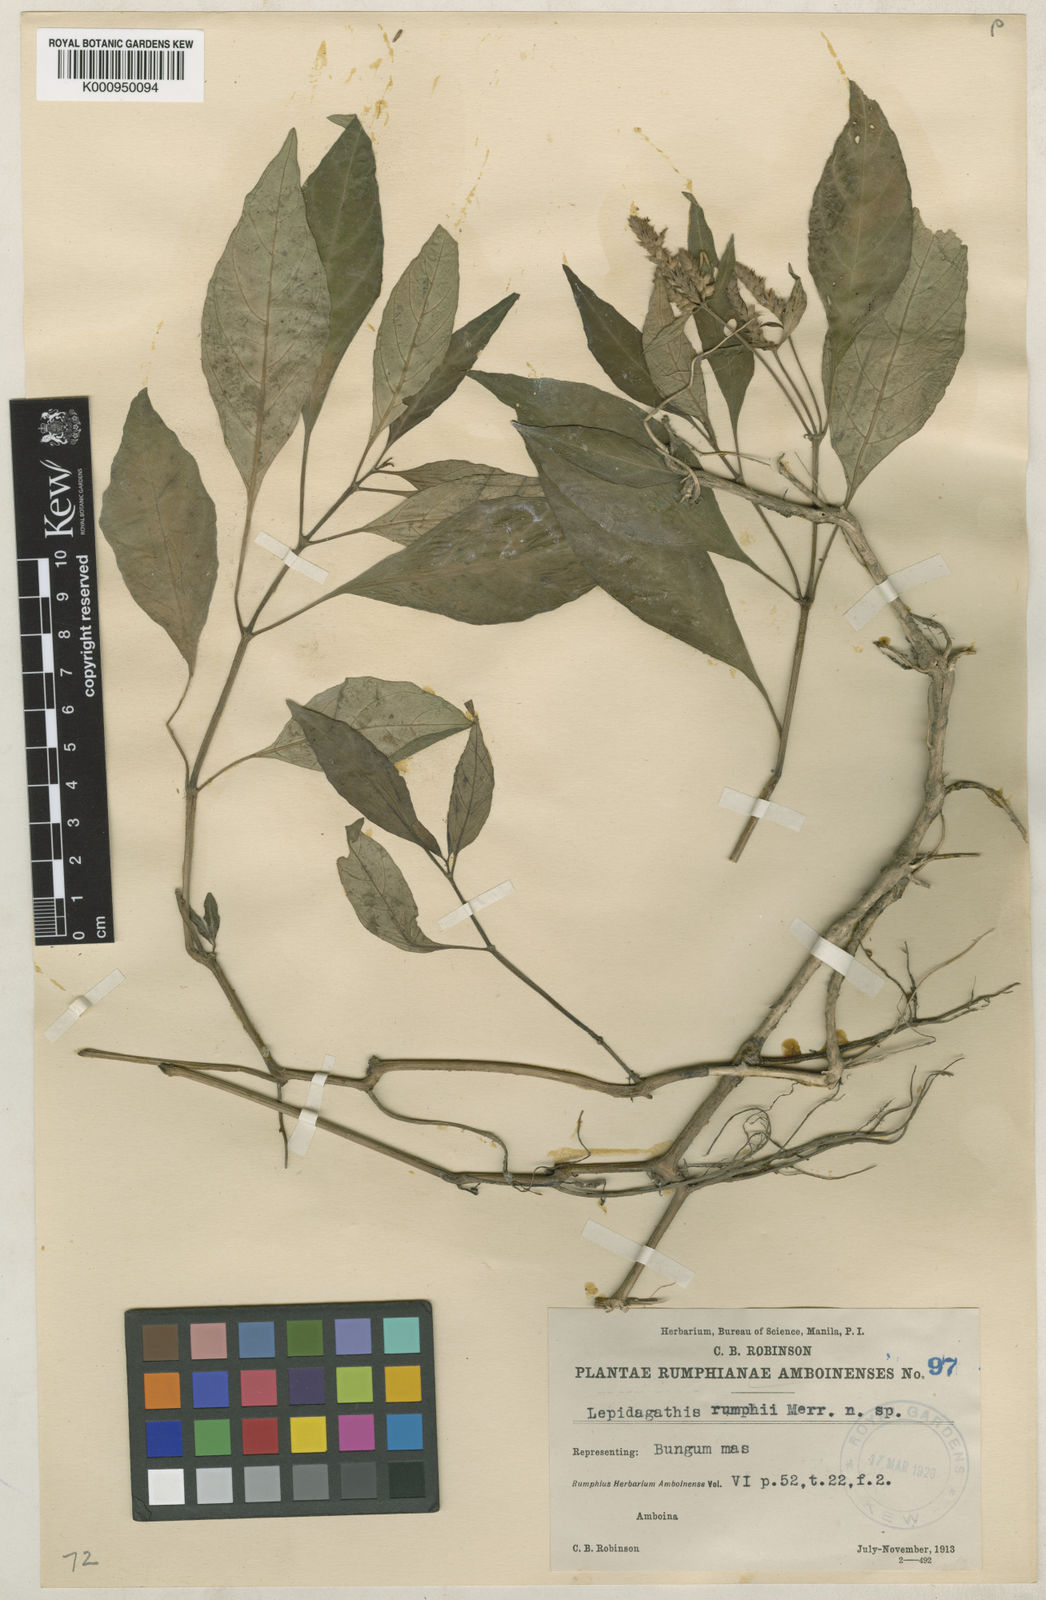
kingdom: Plantae
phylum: Tracheophyta
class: Magnoliopsida
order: Lamiales
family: Acanthaceae
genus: Lepidagathis
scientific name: Lepidagathis rumphii
